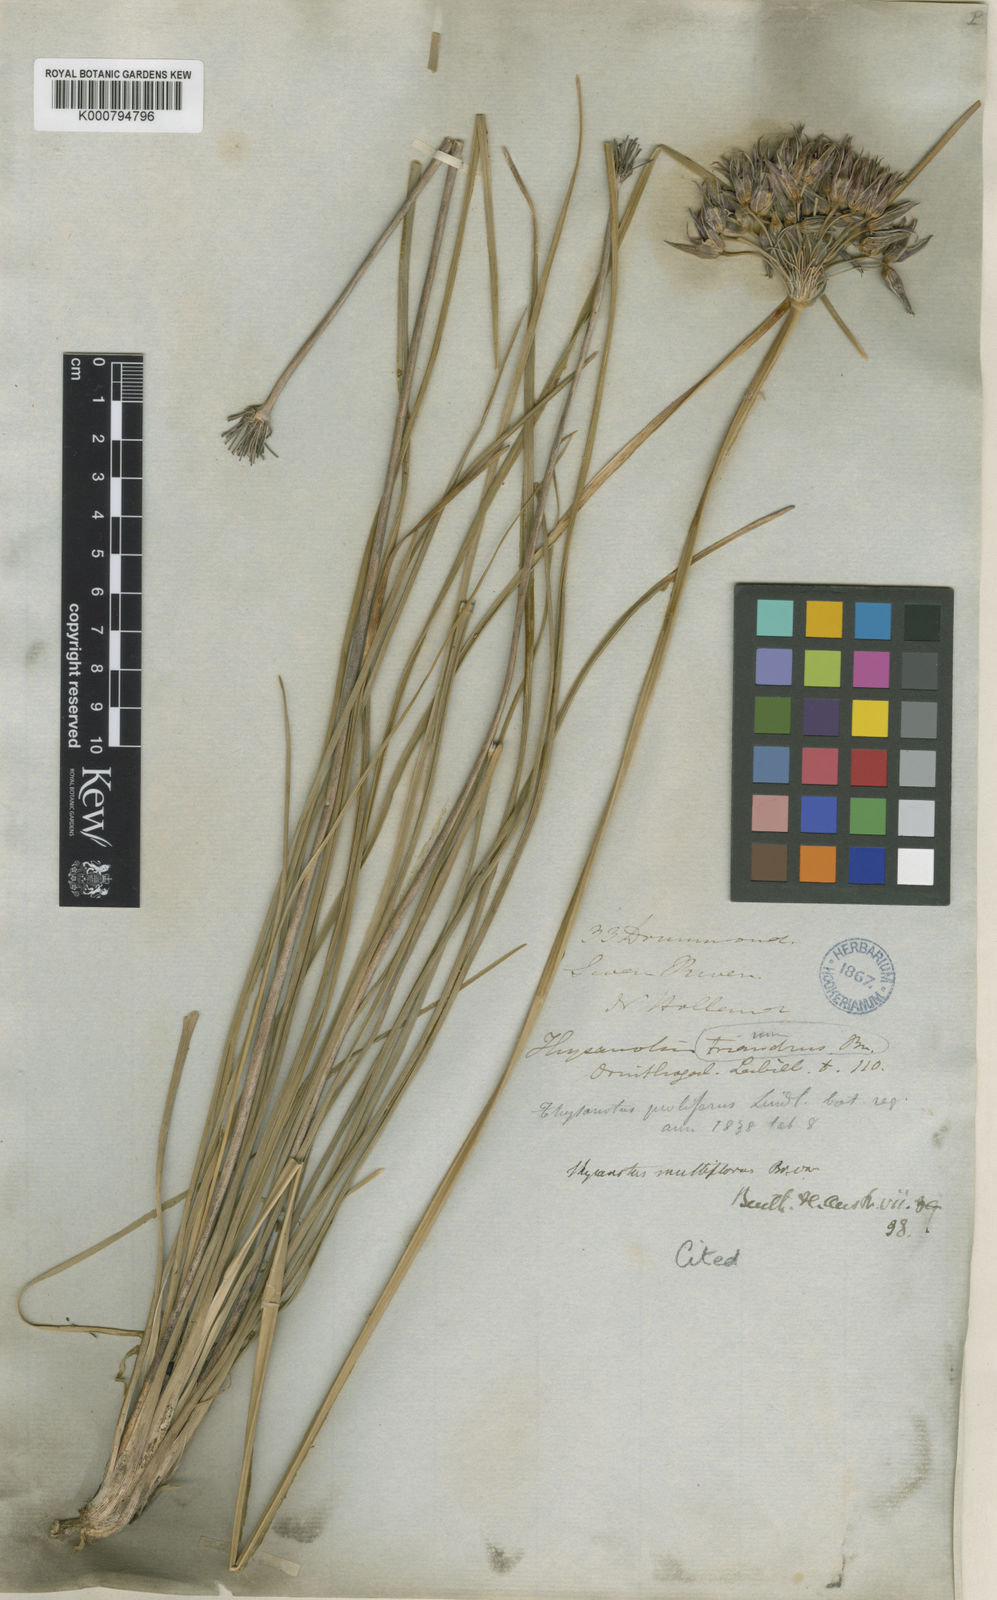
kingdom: Plantae
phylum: Tracheophyta
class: Liliopsida
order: Asparagales
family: Asparagaceae
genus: Thysanotus
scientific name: Thysanotus multiflorus
